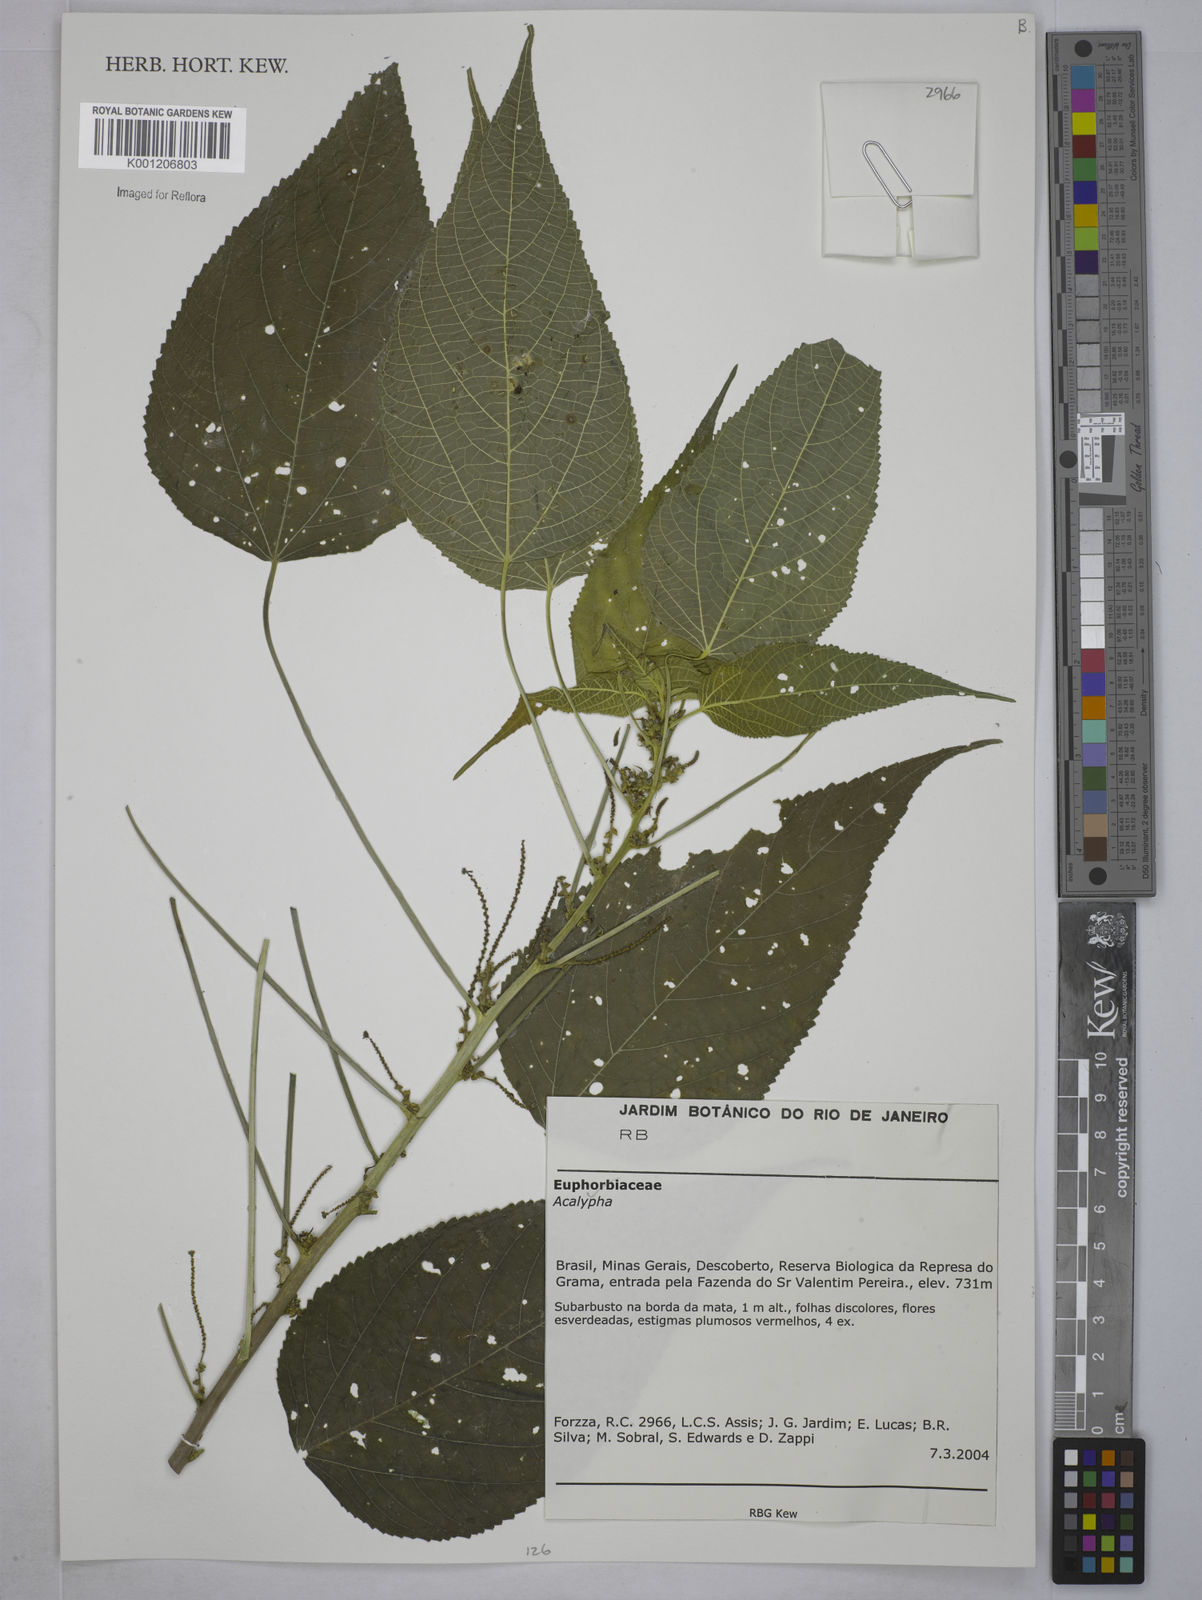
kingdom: Plantae
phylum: Tracheophyta
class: Magnoliopsida
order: Malpighiales
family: Euphorbiaceae
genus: Acalypha
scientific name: Acalypha
